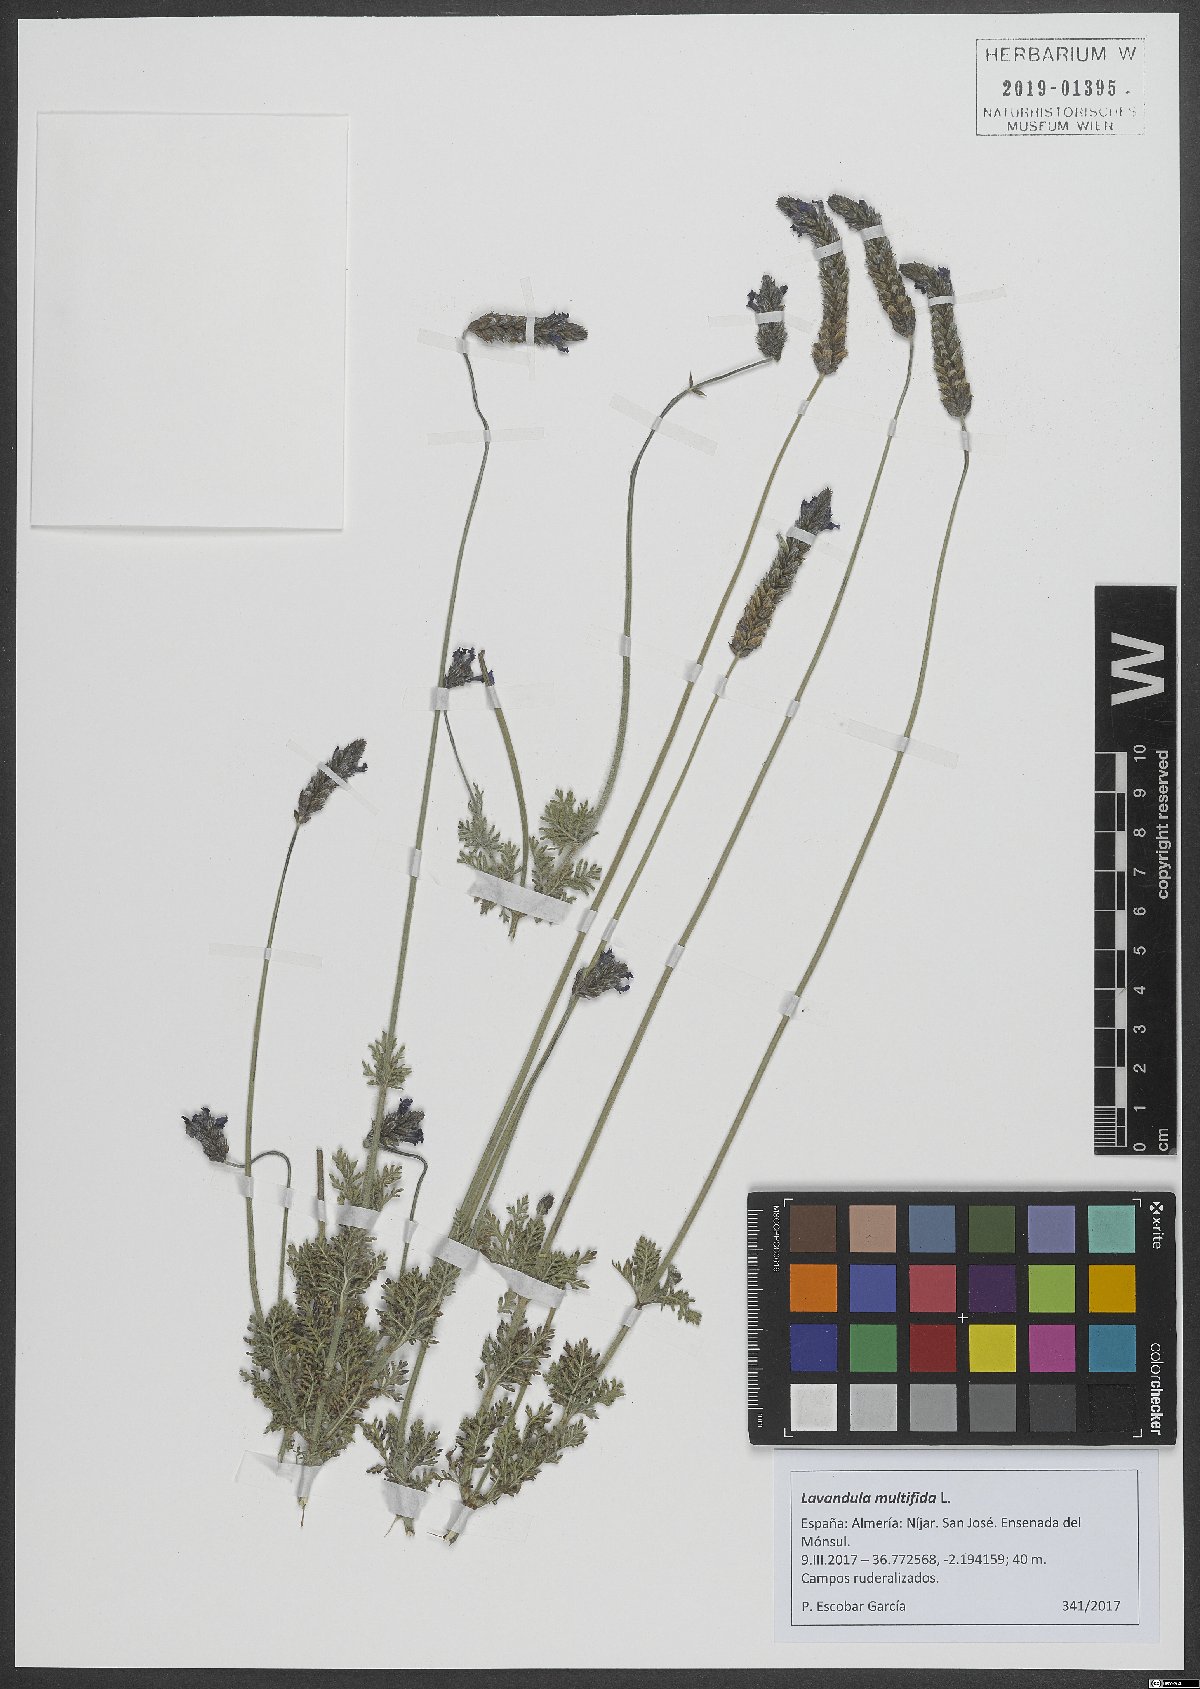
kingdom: Plantae
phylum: Tracheophyta
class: Magnoliopsida
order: Lamiales
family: Lamiaceae
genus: Lavandula
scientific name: Lavandula multifida
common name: Fern-leaf lavender
